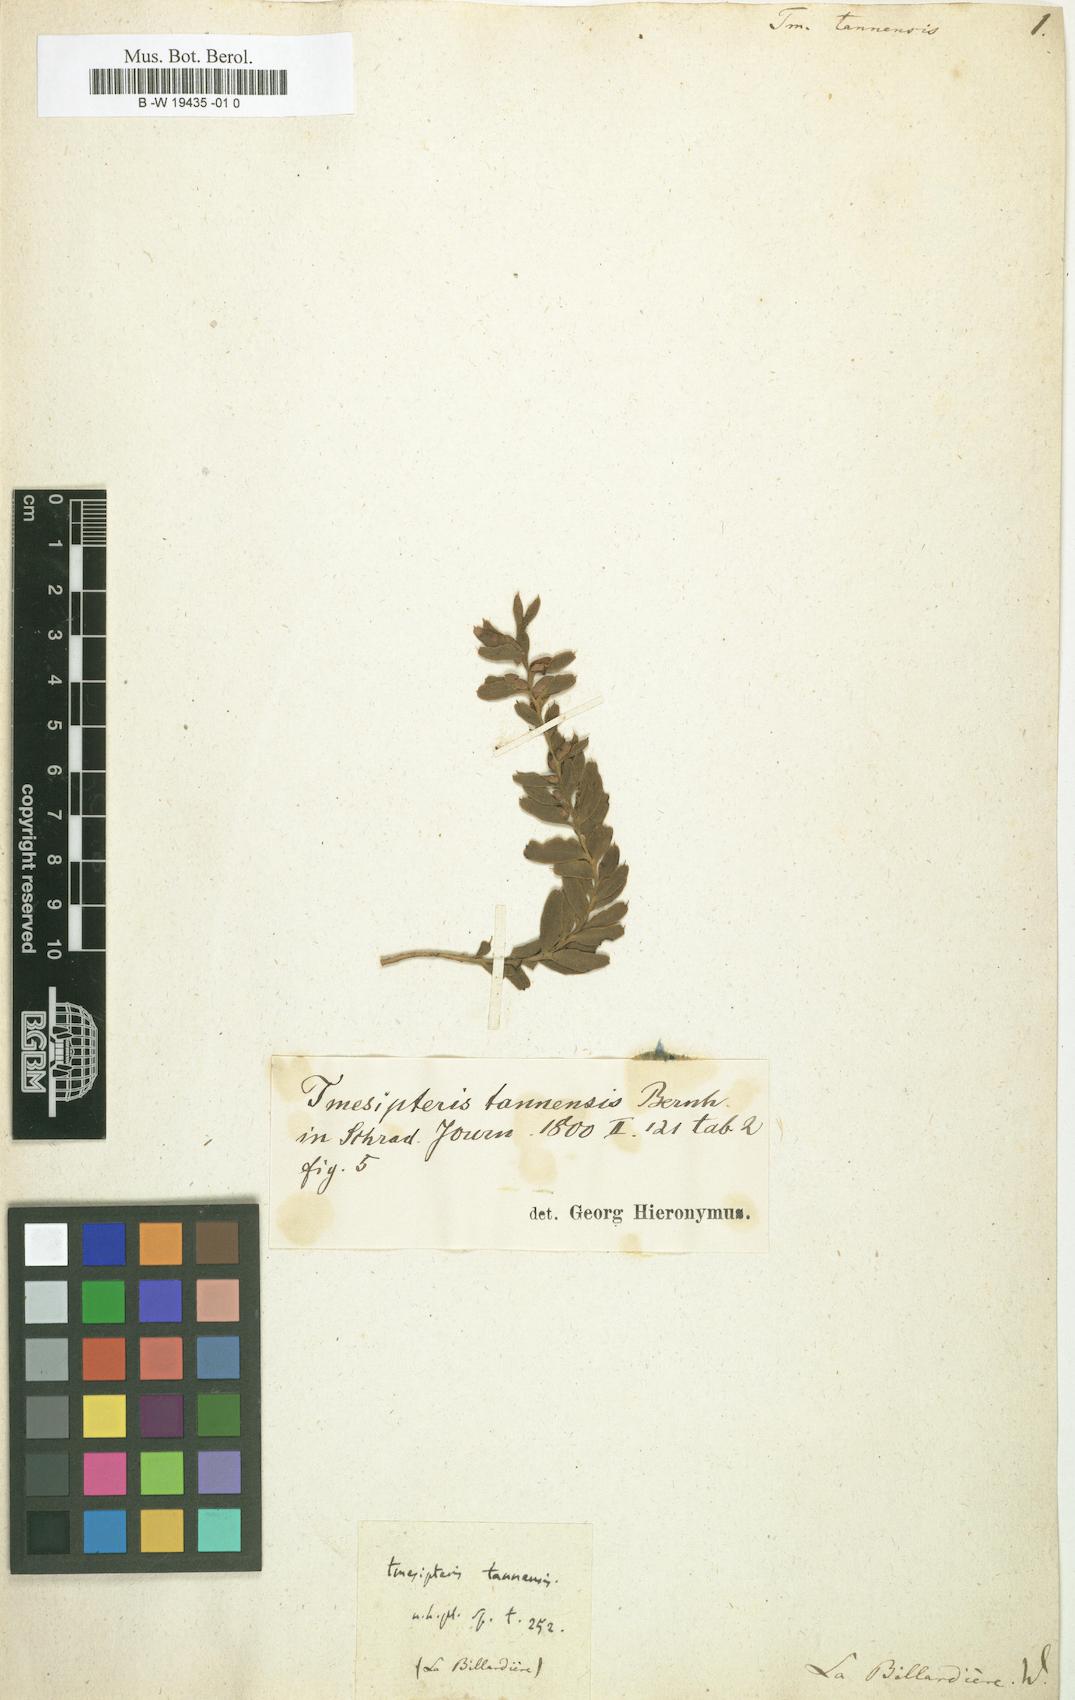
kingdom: Plantae
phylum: Tracheophyta
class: Polypodiopsida
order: Psilotales
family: Psilotaceae
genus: Tmesipteris
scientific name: Tmesipteris tannensis
